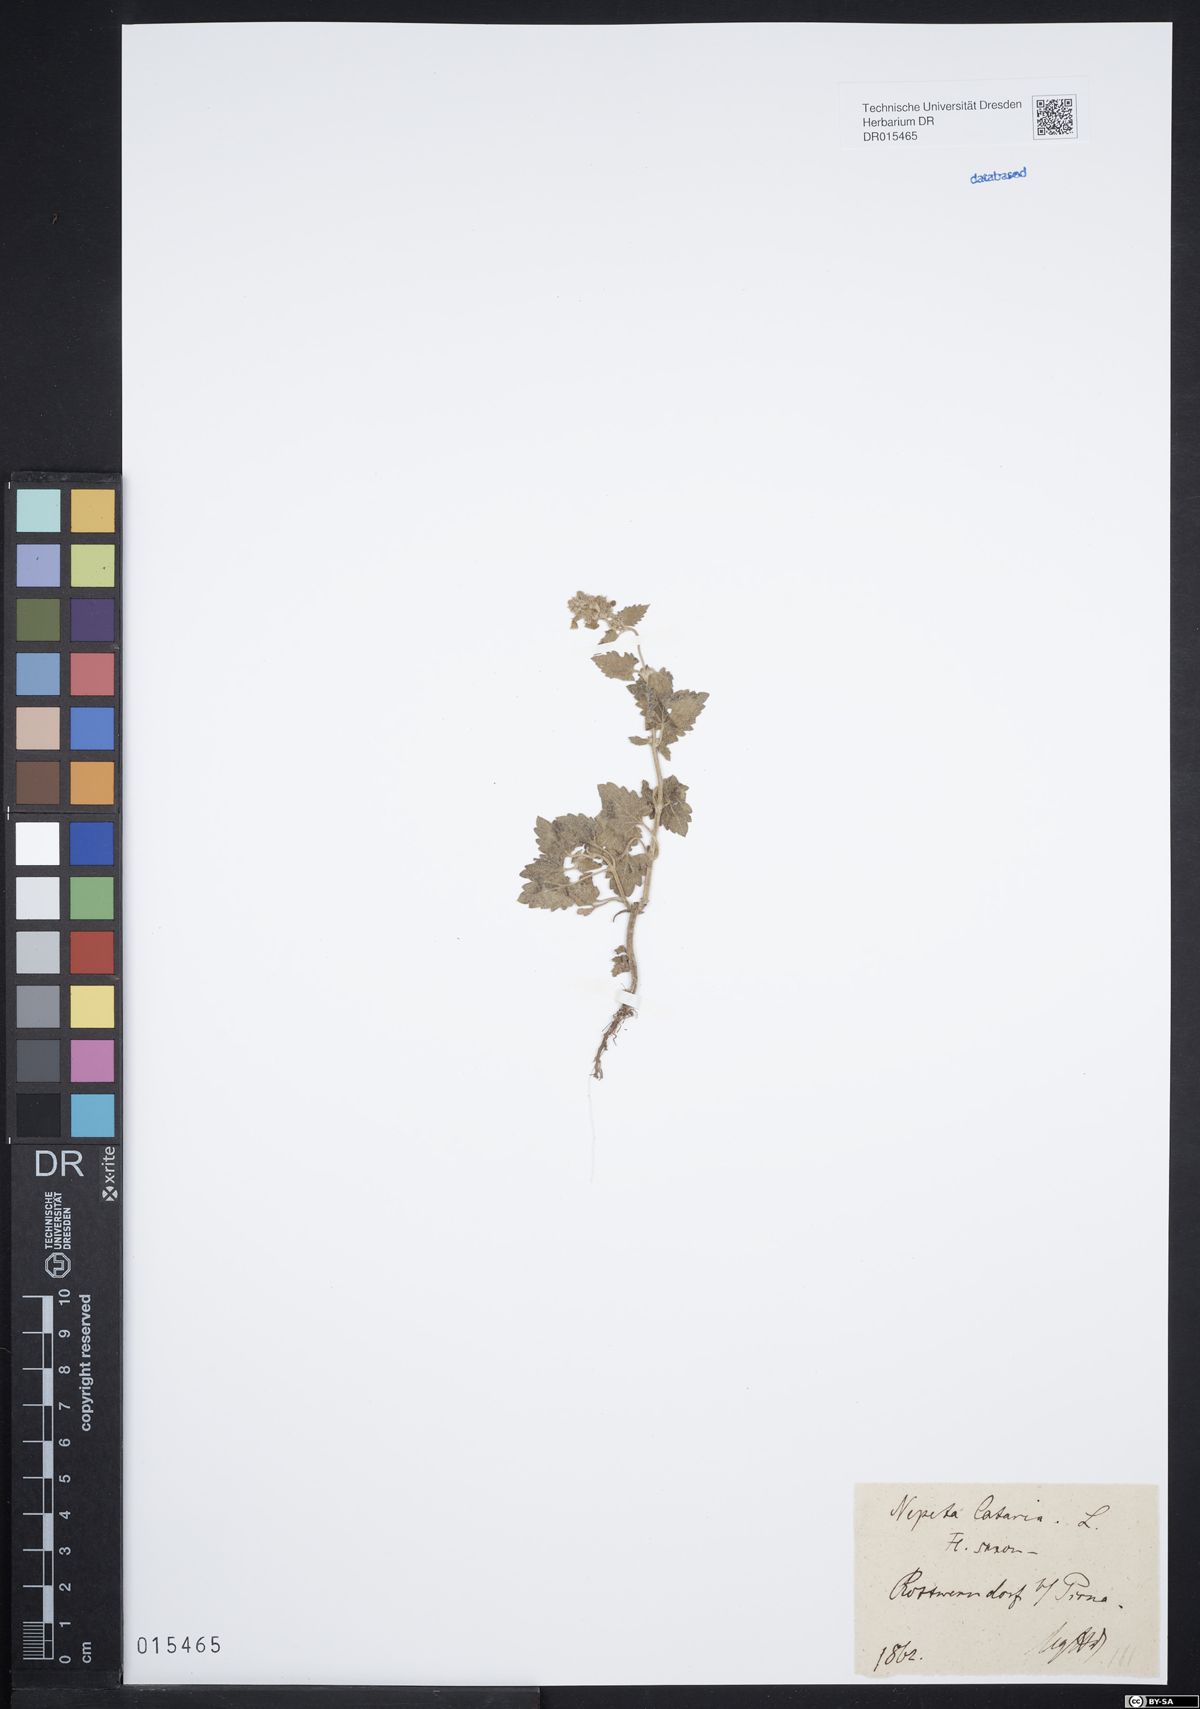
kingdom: Plantae
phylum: Tracheophyta
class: Magnoliopsida
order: Lamiales
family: Lamiaceae
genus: Nepeta
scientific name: Nepeta cataria
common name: Catnip
